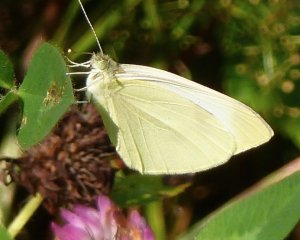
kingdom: Animalia
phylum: Arthropoda
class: Insecta
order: Lepidoptera
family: Pieridae
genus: Pieris
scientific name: Pieris rapae
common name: Cabbage White
